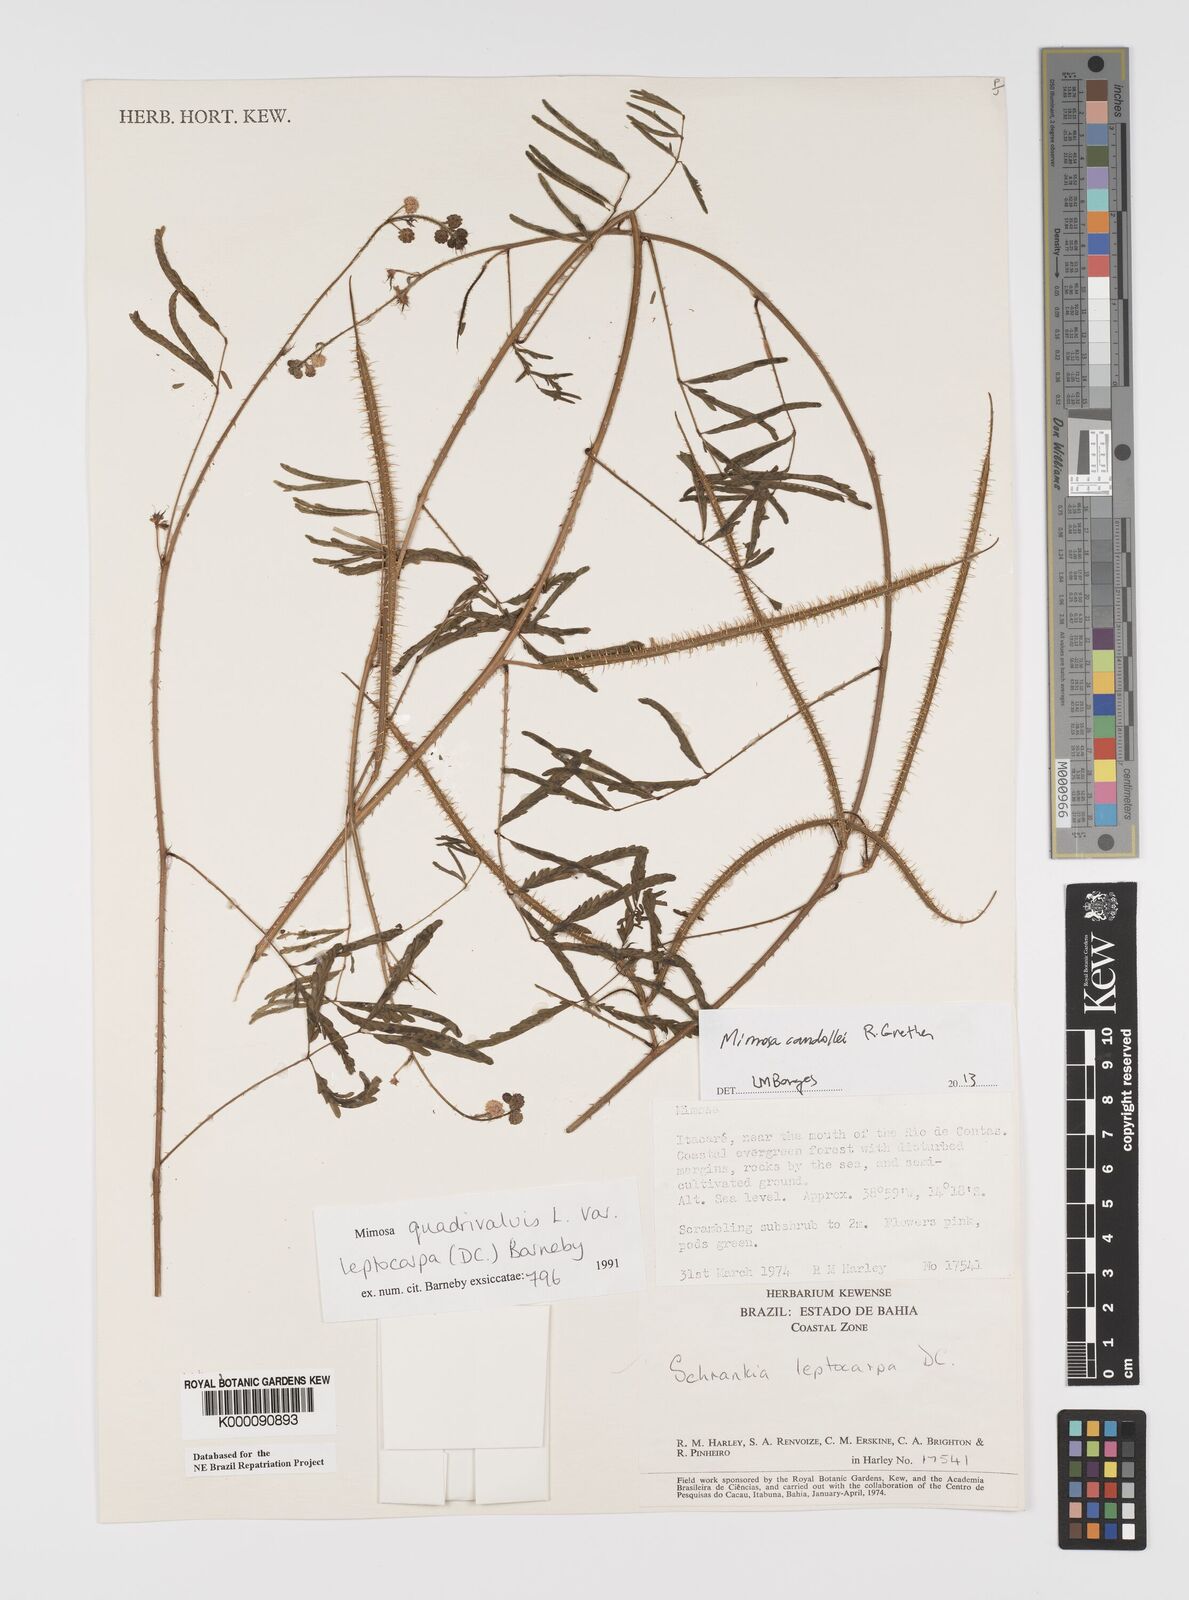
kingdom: Plantae
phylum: Tracheophyta
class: Magnoliopsida
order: Fabales
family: Fabaceae
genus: Mimosa
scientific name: Mimosa candollei
